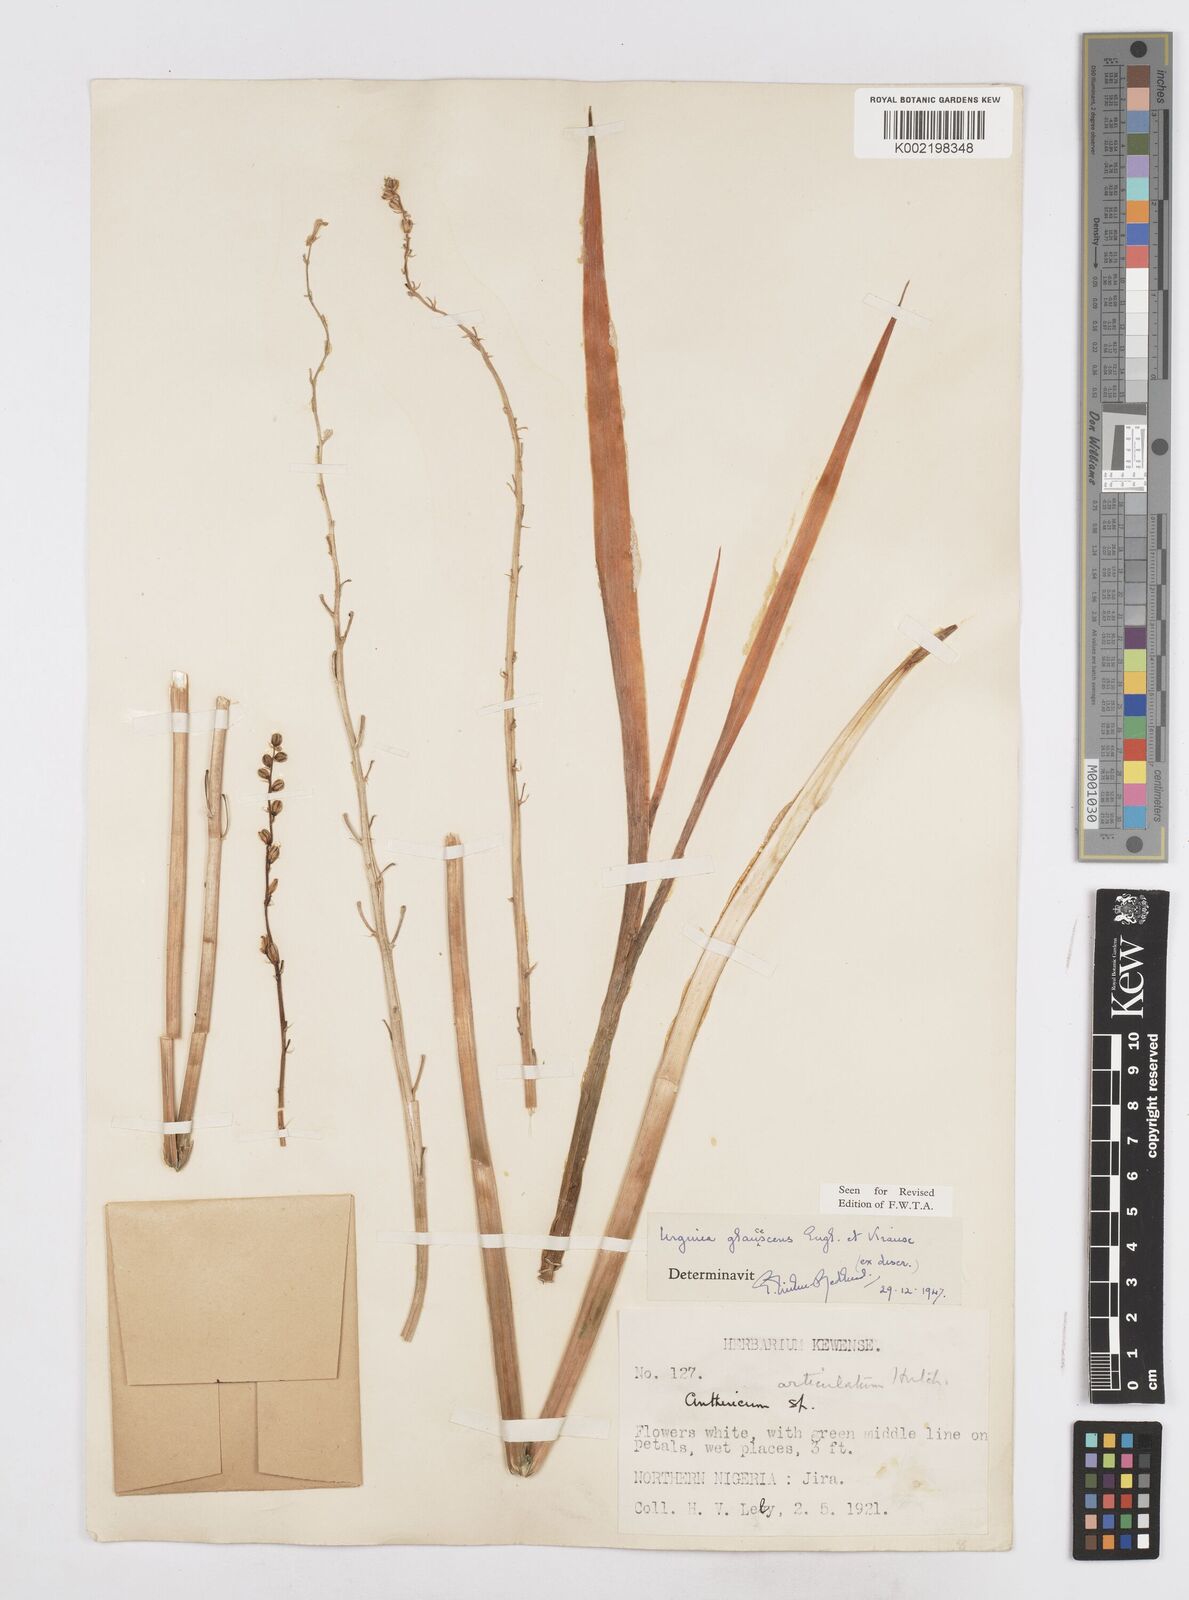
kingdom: Plantae
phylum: Tracheophyta
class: Liliopsida
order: Asparagales
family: Asparagaceae
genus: Ledebouria
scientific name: Ledebouria ensifolia
